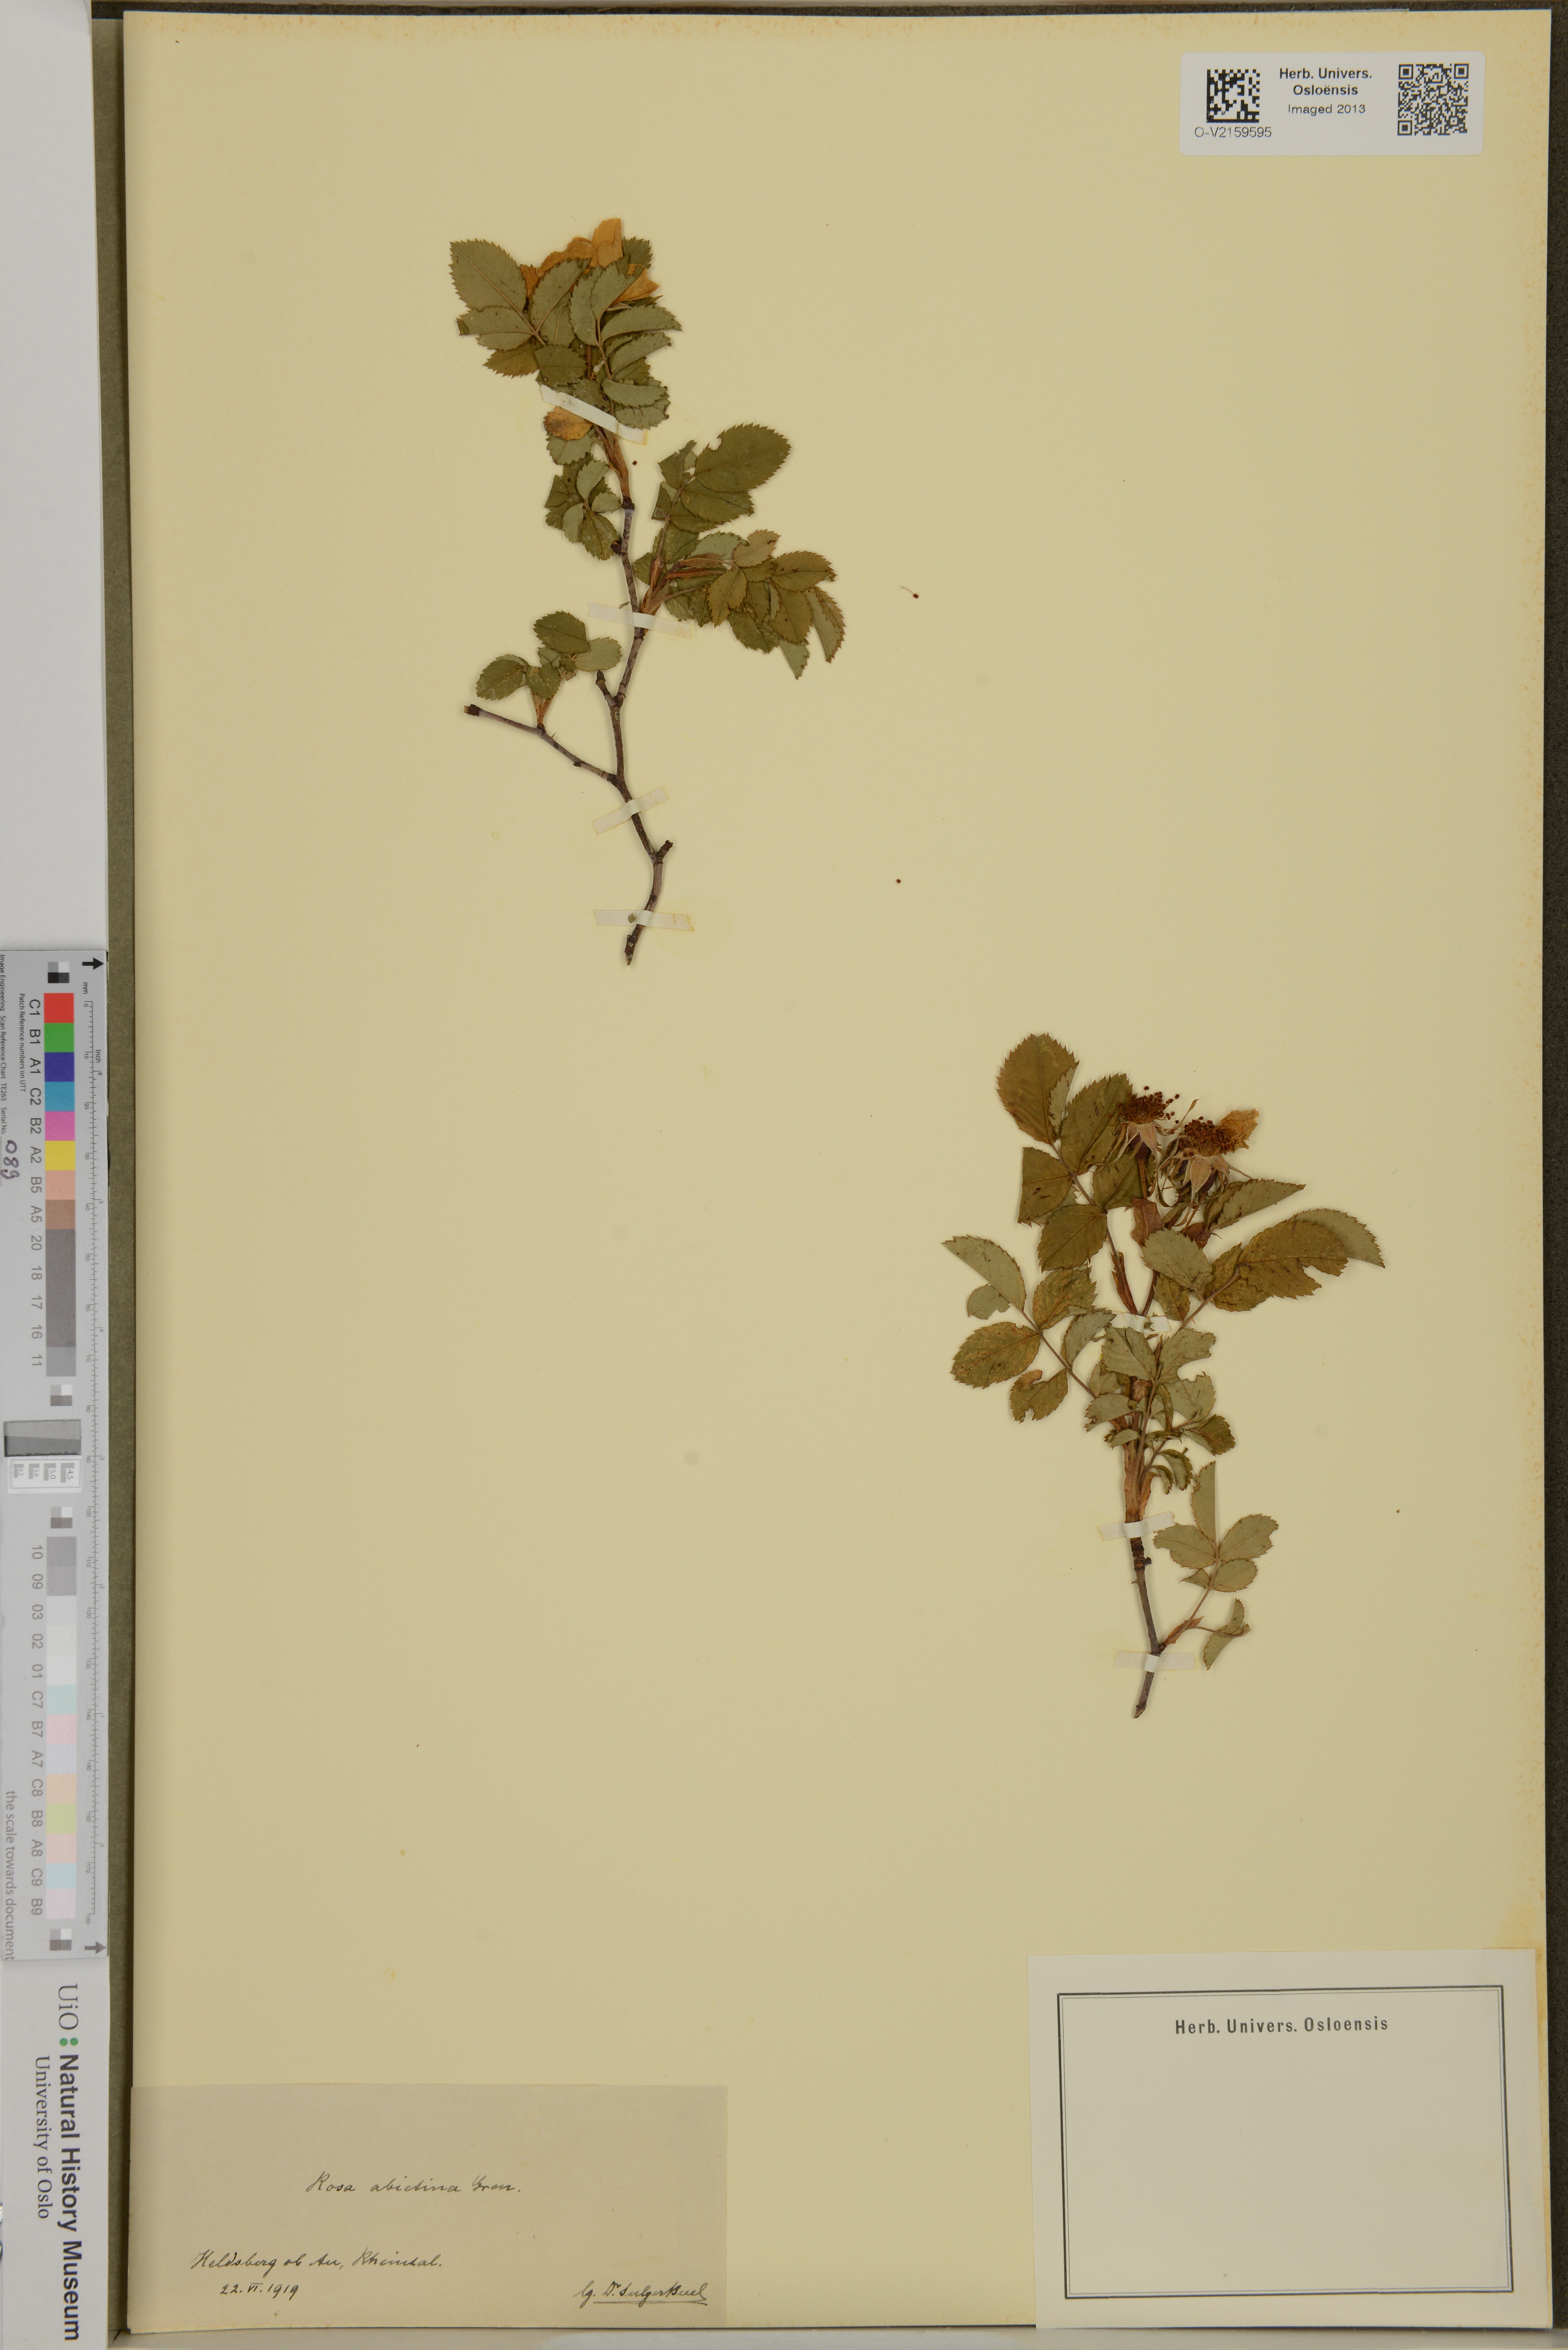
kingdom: Plantae
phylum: Tracheophyta
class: Magnoliopsida
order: Rosales
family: Rosaceae
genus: Rosa
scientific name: Rosa abietina
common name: Needle rose
